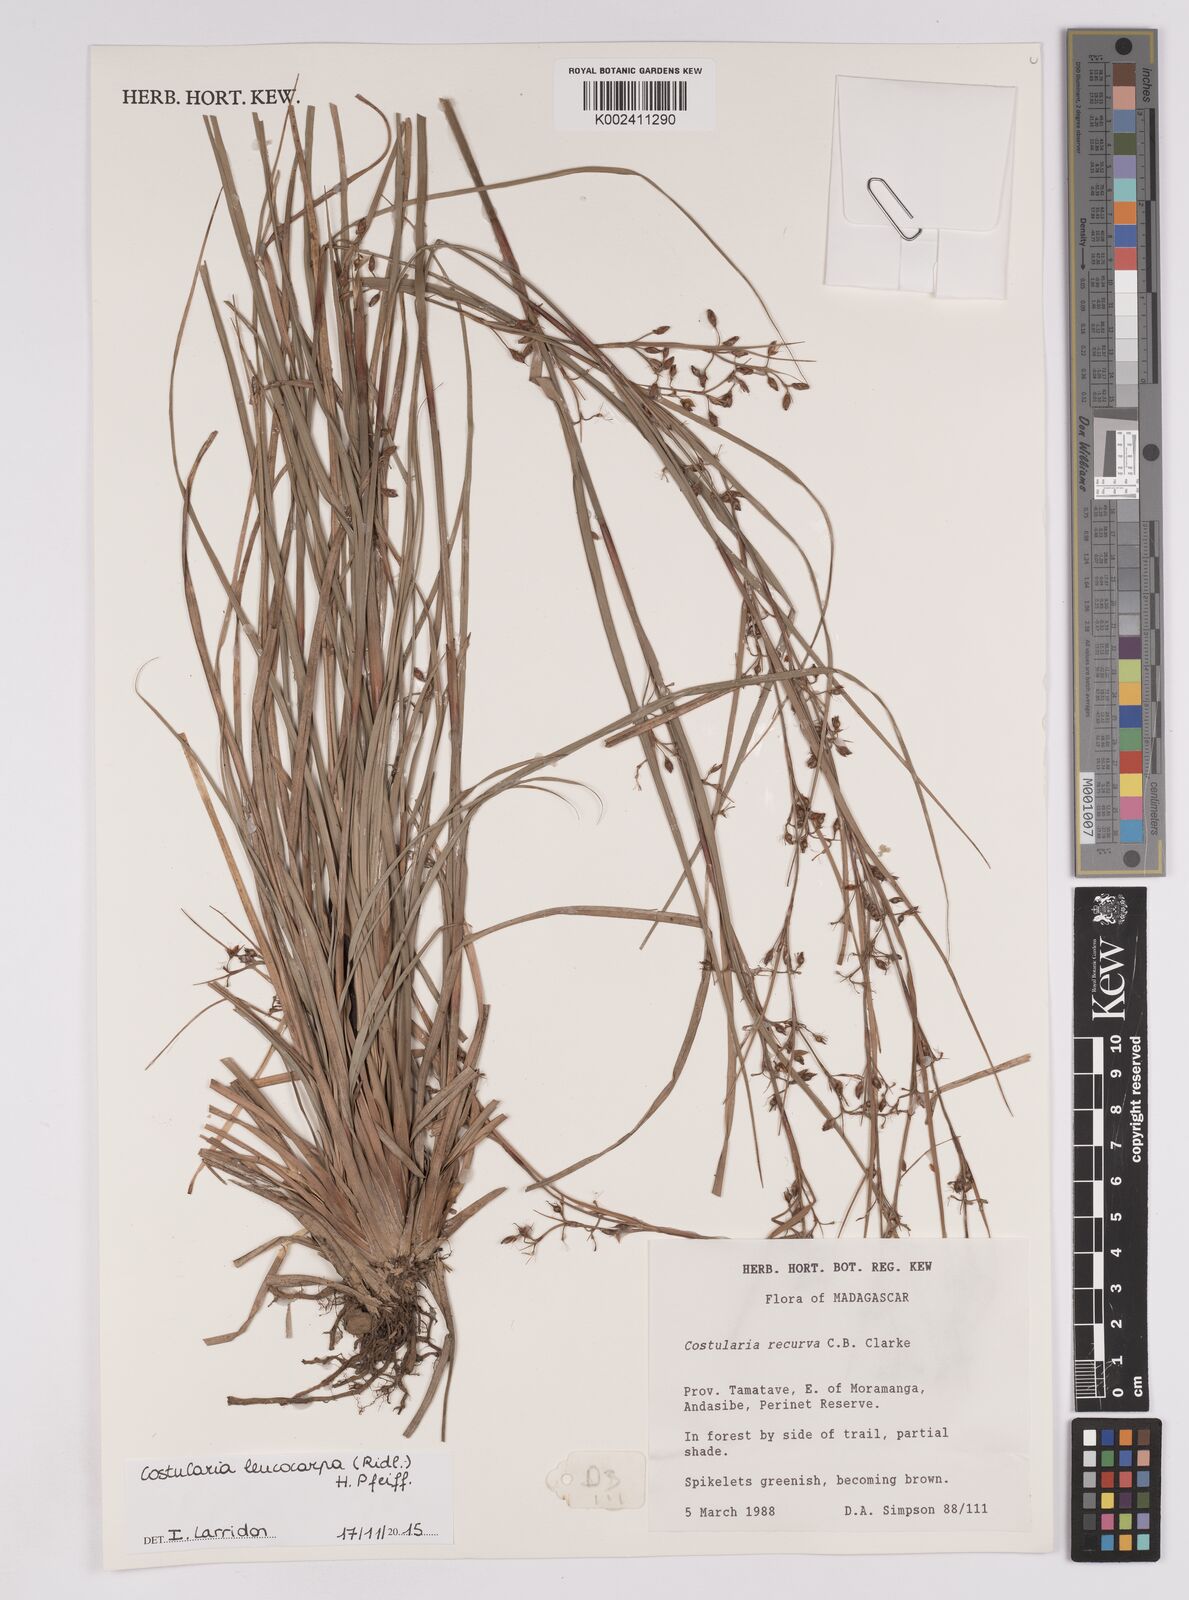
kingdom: Plantae
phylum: Tracheophyta
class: Liliopsida
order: Poales
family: Cyperaceae
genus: Costularia
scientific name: Costularia leucocarpa
